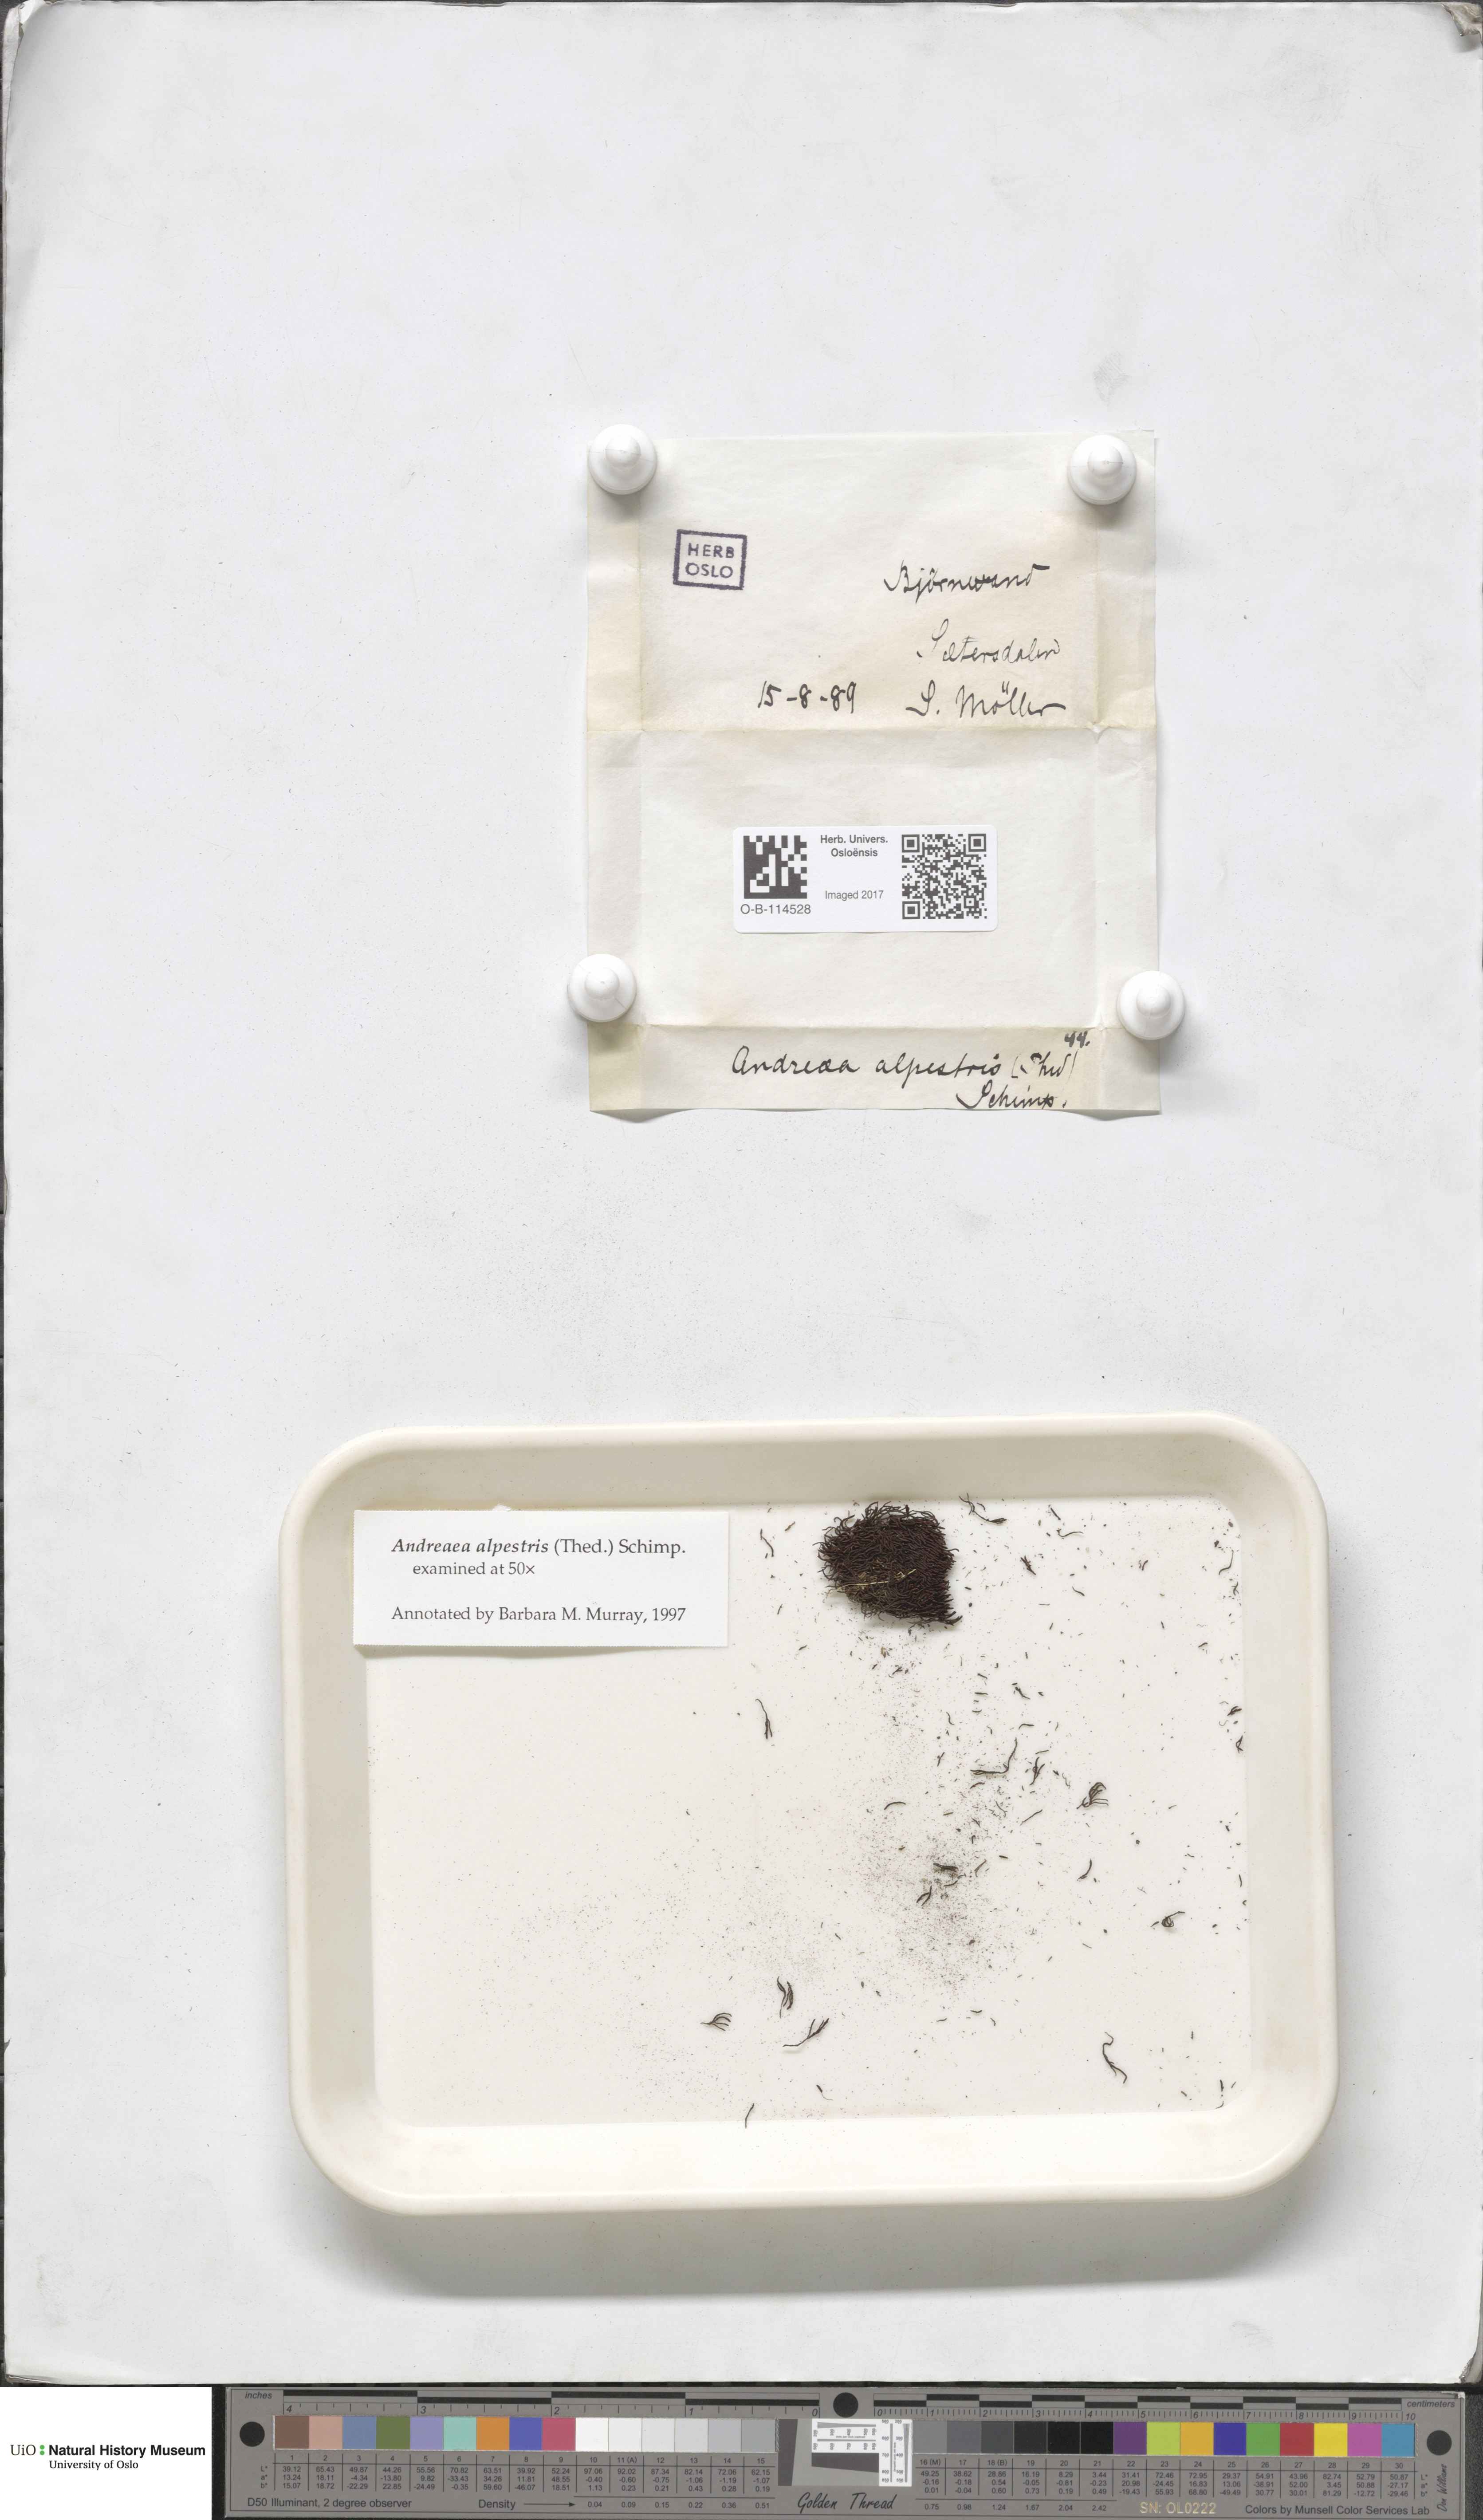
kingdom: Plantae
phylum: Bryophyta
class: Andreaeopsida
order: Andreaeales
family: Andreaeaceae
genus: Andreaea
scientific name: Andreaea alpestris
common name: Slender rock-moss
